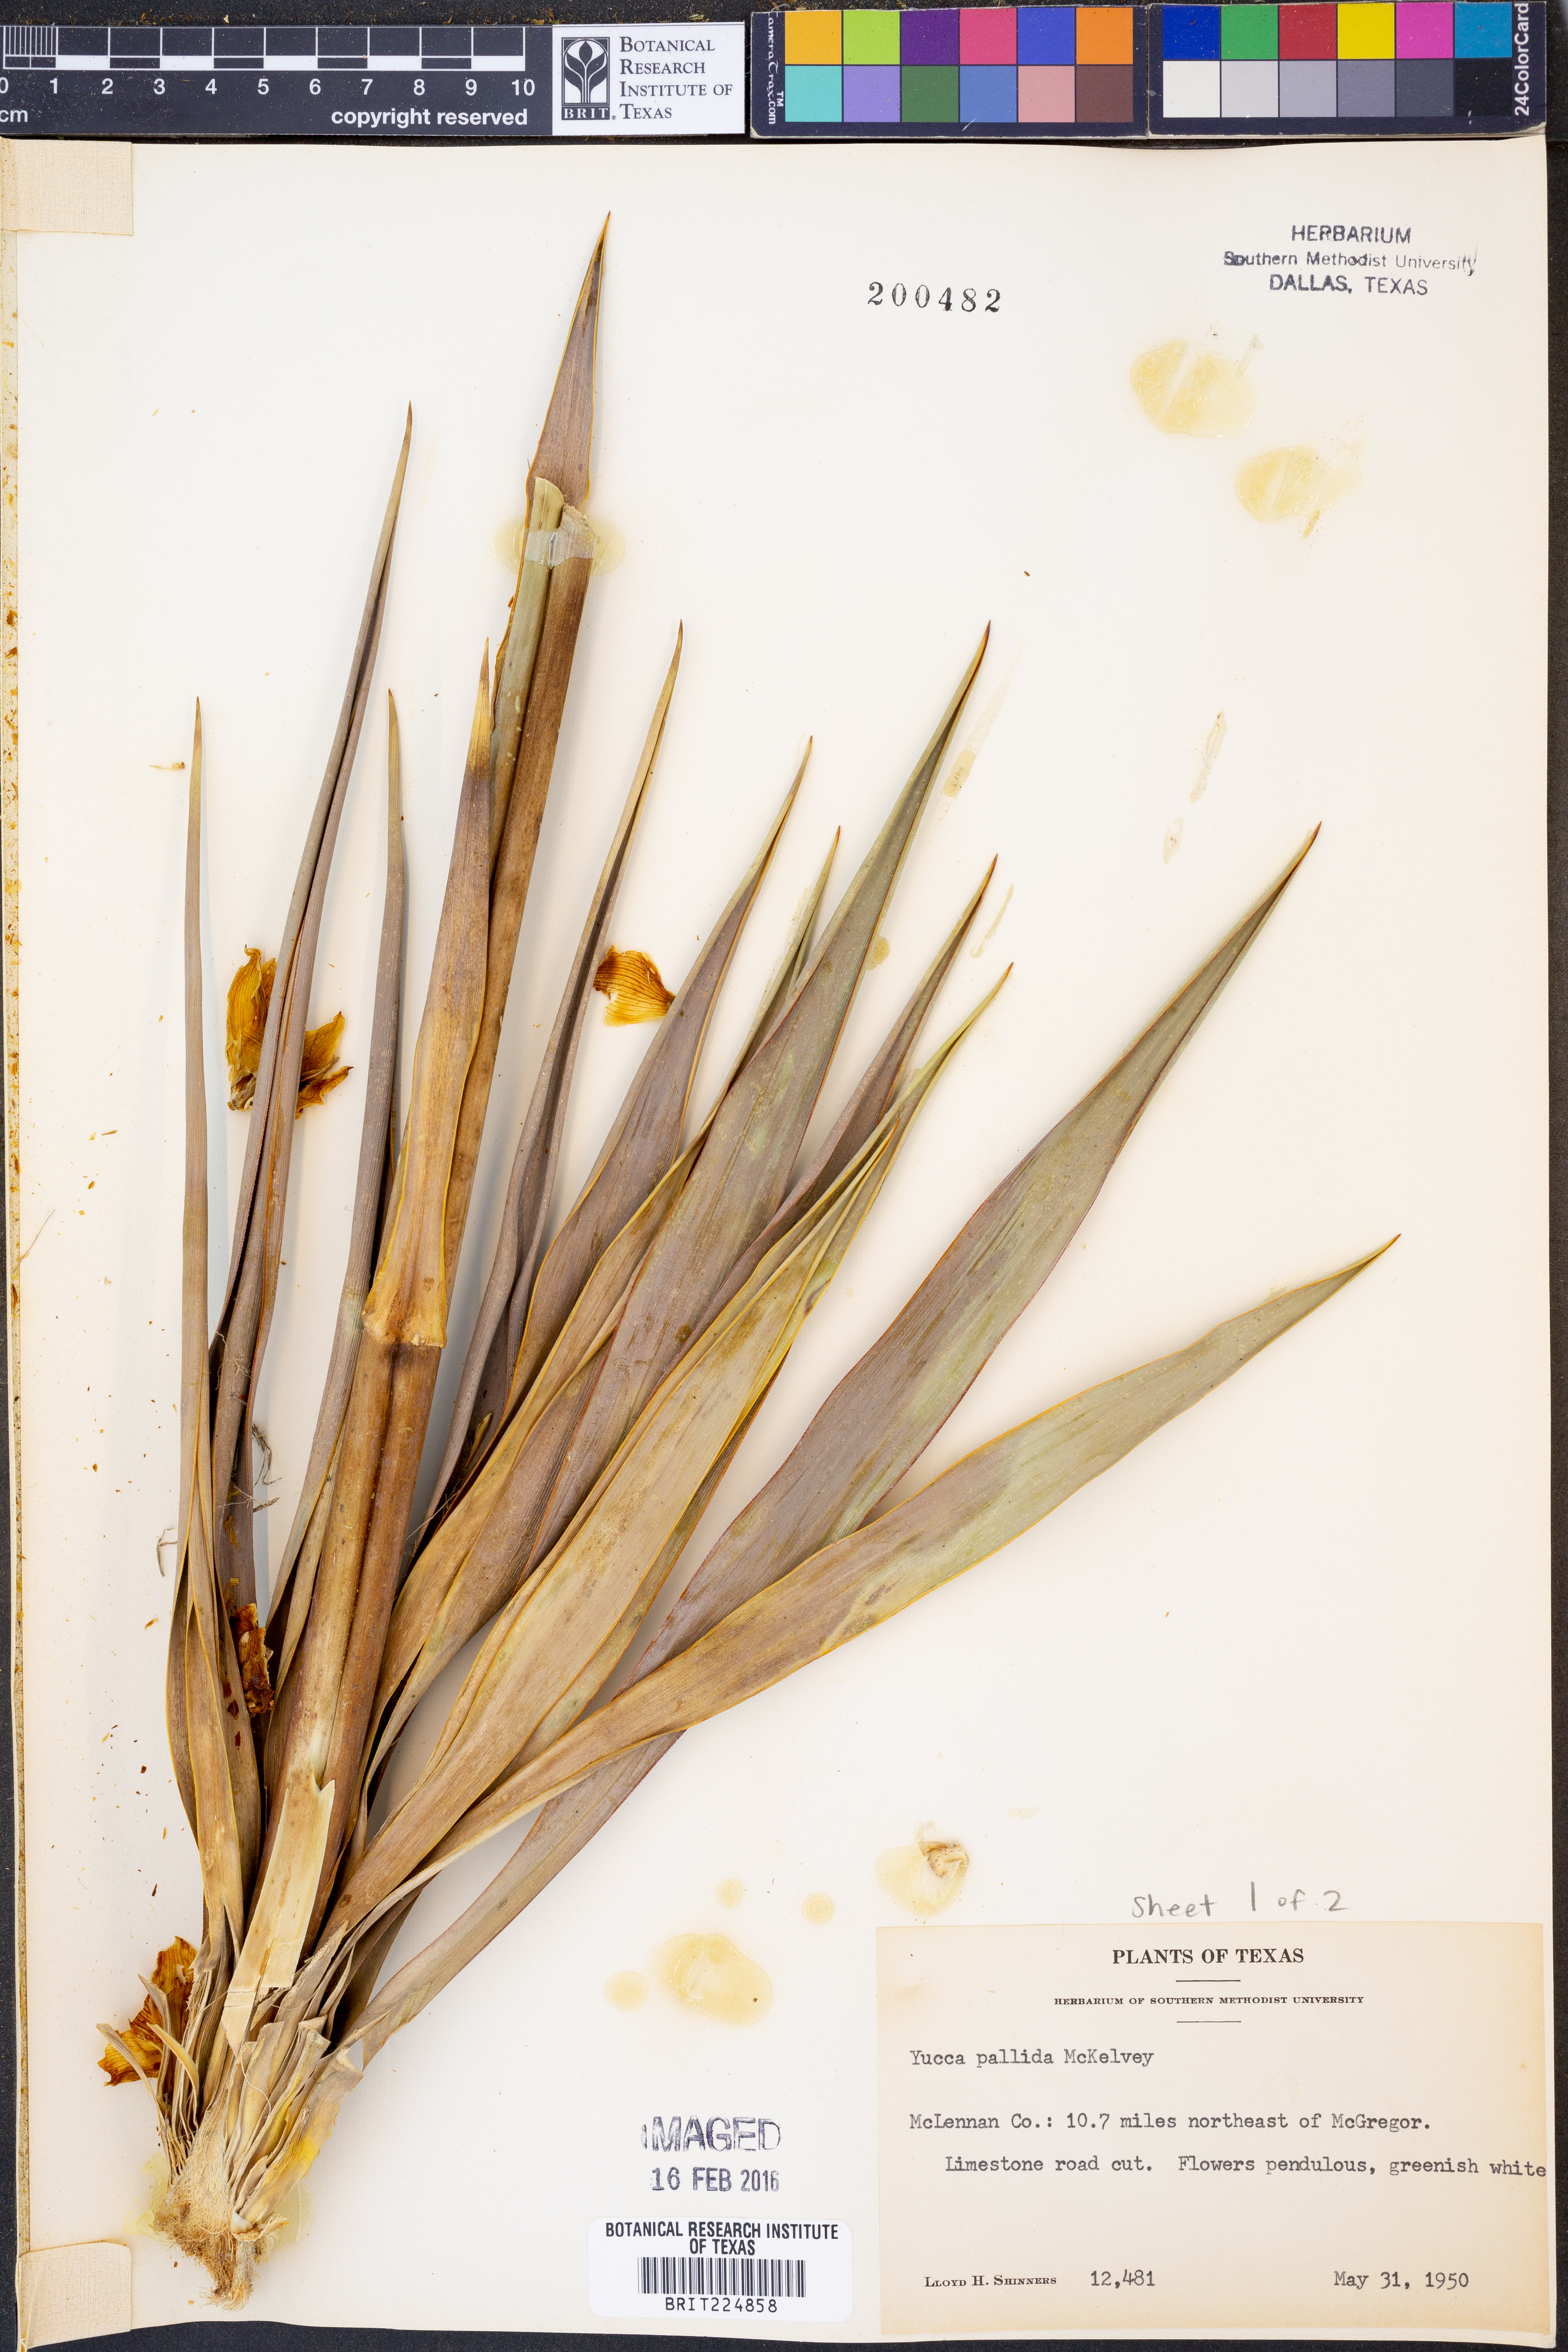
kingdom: Plantae
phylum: Tracheophyta
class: Liliopsida
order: Asparagales
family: Asparagaceae
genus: Yucca
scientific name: Yucca pallida
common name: Pale leaf yucca
